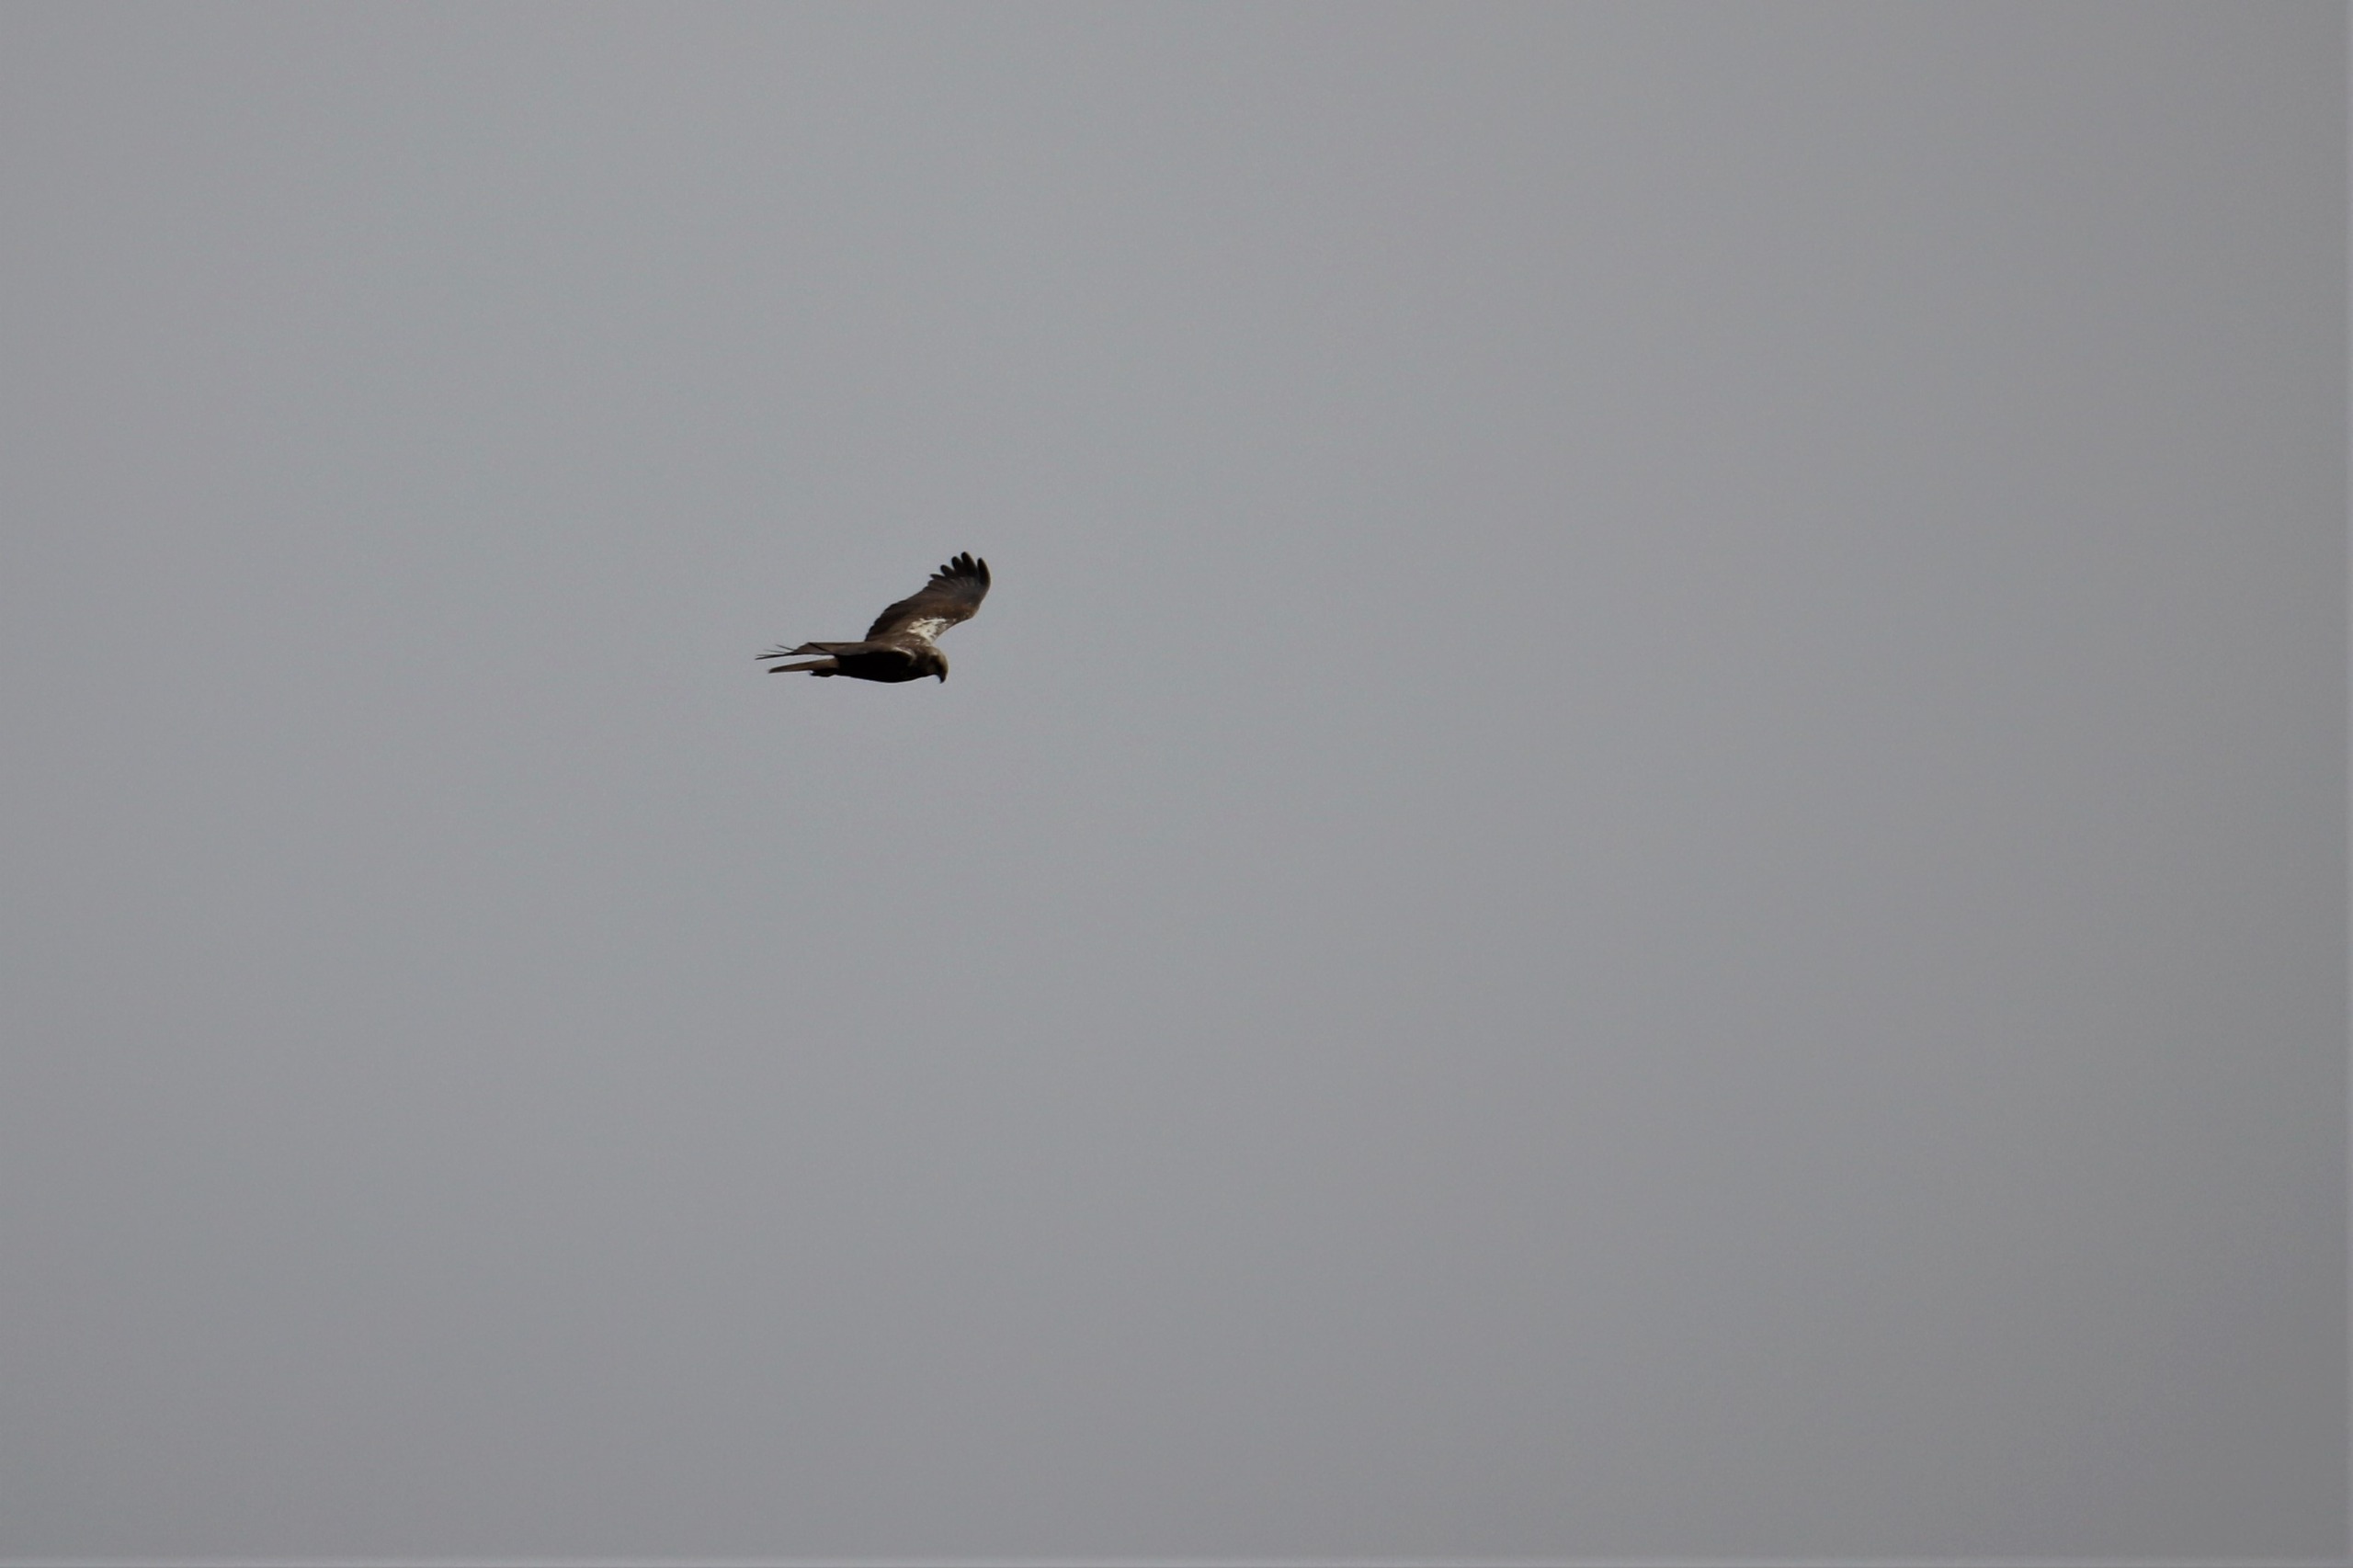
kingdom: Animalia
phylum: Chordata
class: Aves
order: Accipitriformes
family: Accipitridae
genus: Circus
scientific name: Circus aeruginosus
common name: Rørhøg
